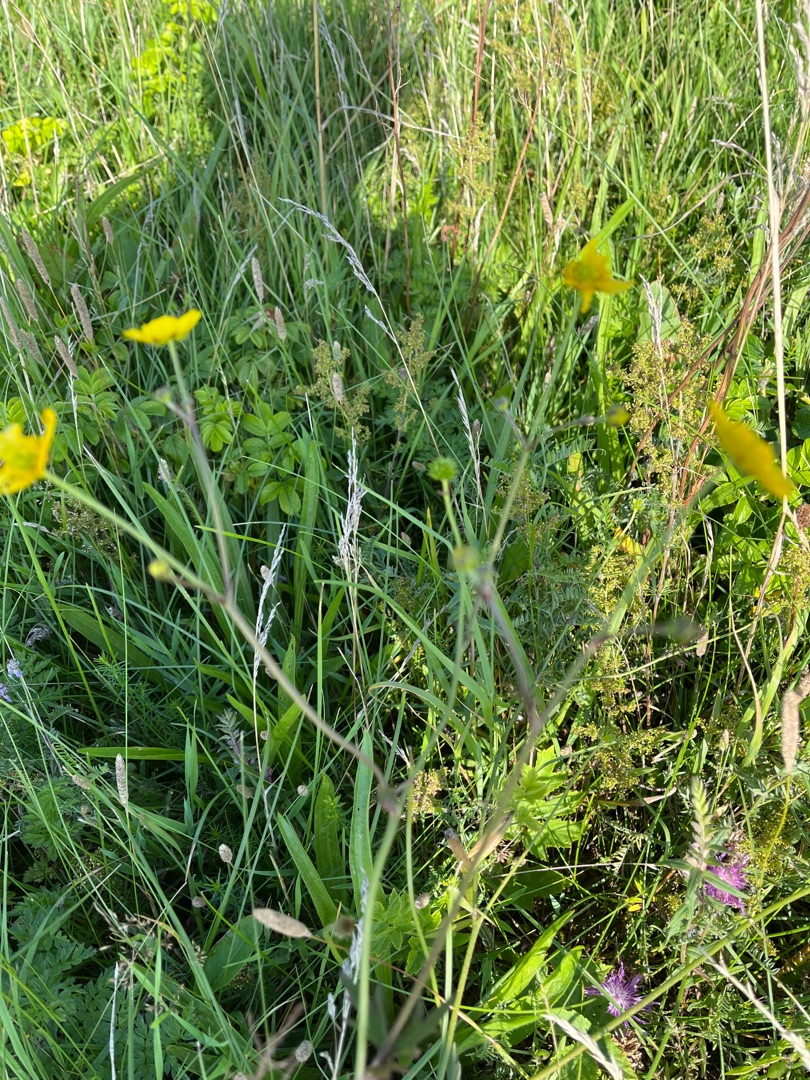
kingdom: Plantae
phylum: Tracheophyta
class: Magnoliopsida
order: Ranunculales
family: Ranunculaceae
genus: Ranunculus
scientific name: Ranunculus
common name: Ranunkelslægten
